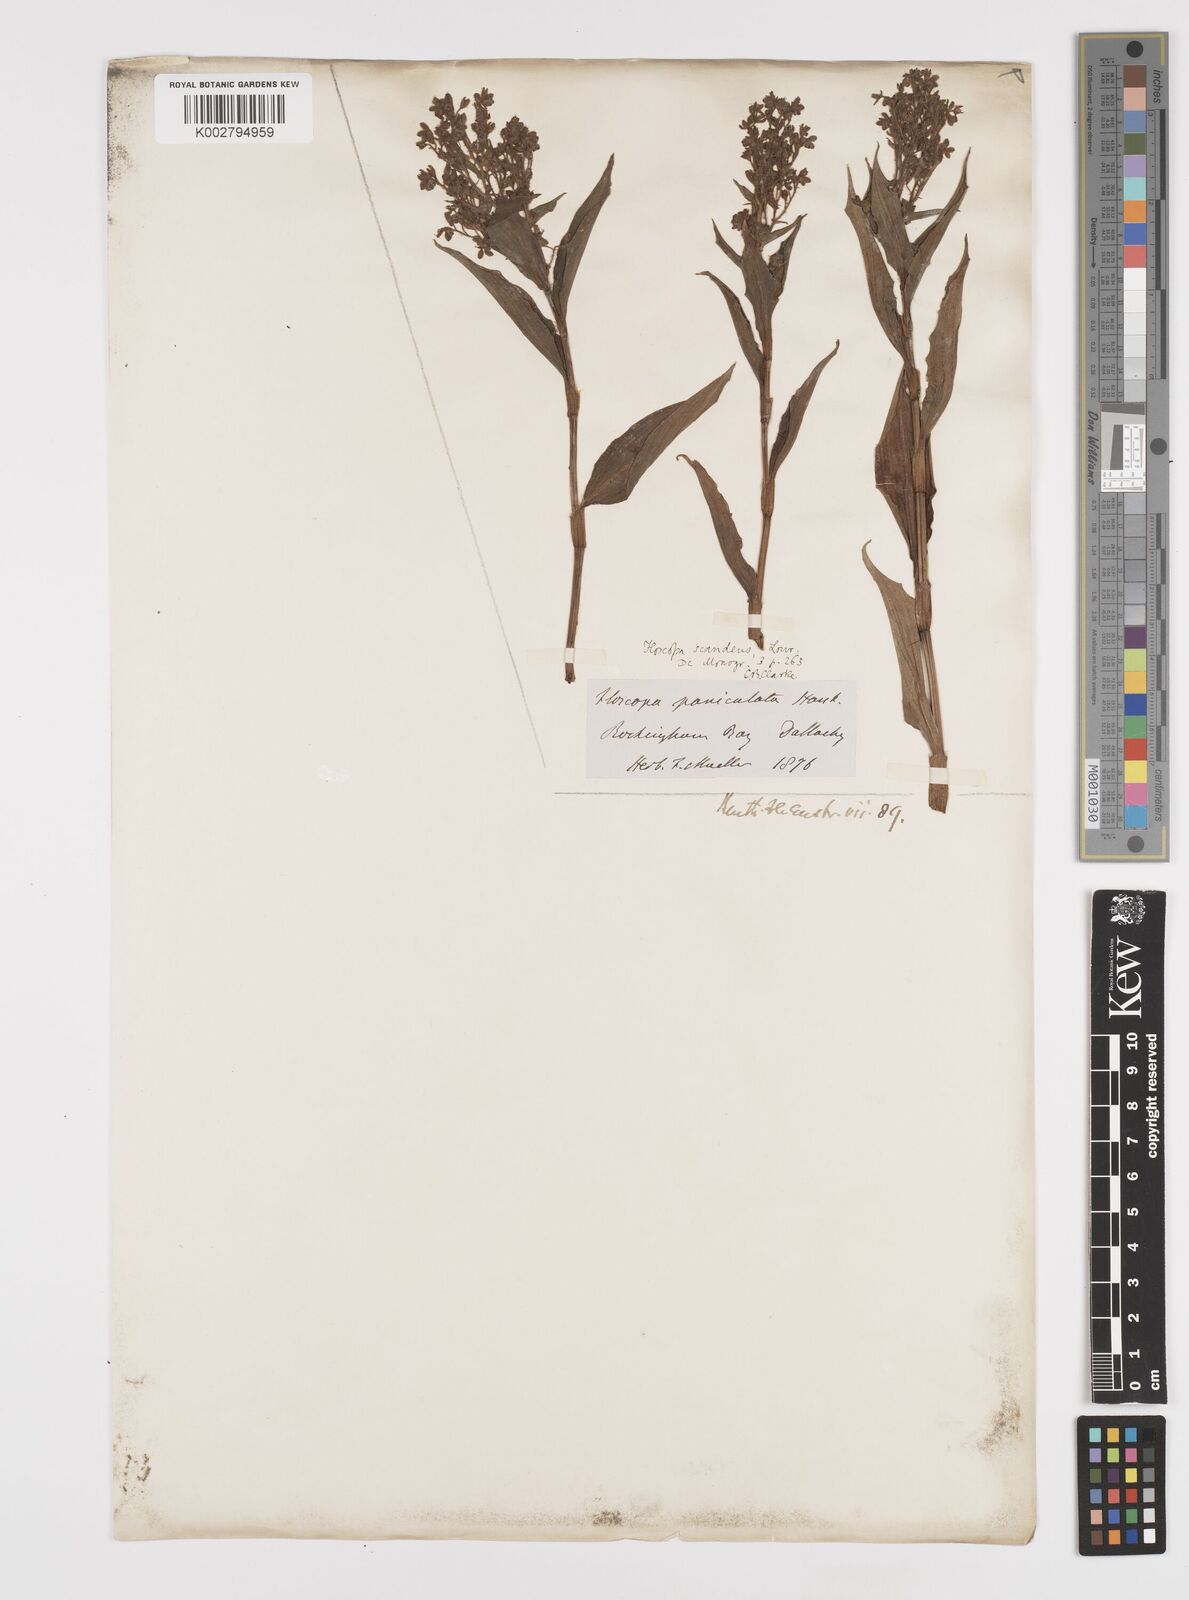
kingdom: Plantae
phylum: Tracheophyta
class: Liliopsida
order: Commelinales
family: Commelinaceae
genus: Floscopa
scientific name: Floscopa scandens
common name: Climbing flower cup
